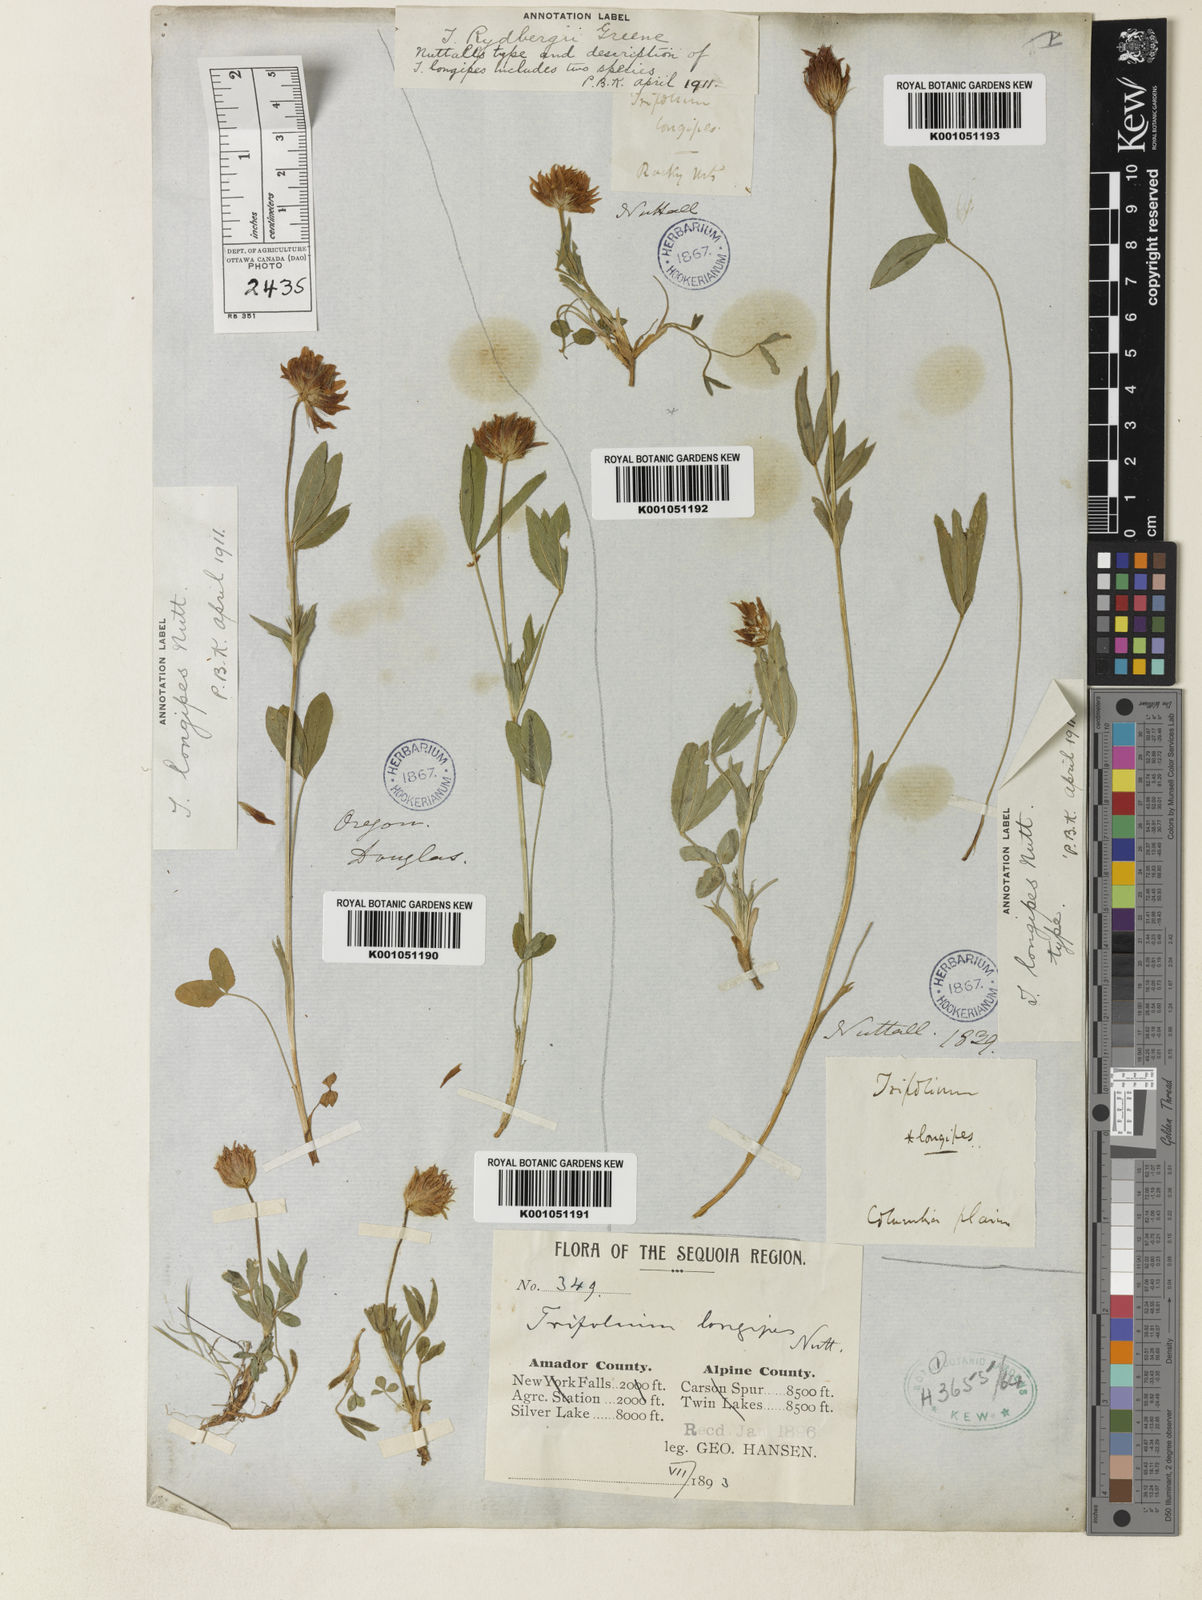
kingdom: Plantae
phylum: Tracheophyta
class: Magnoliopsida
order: Fabales
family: Fabaceae
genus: Trifolium
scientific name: Trifolium longipes
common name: Long-stalk clover
